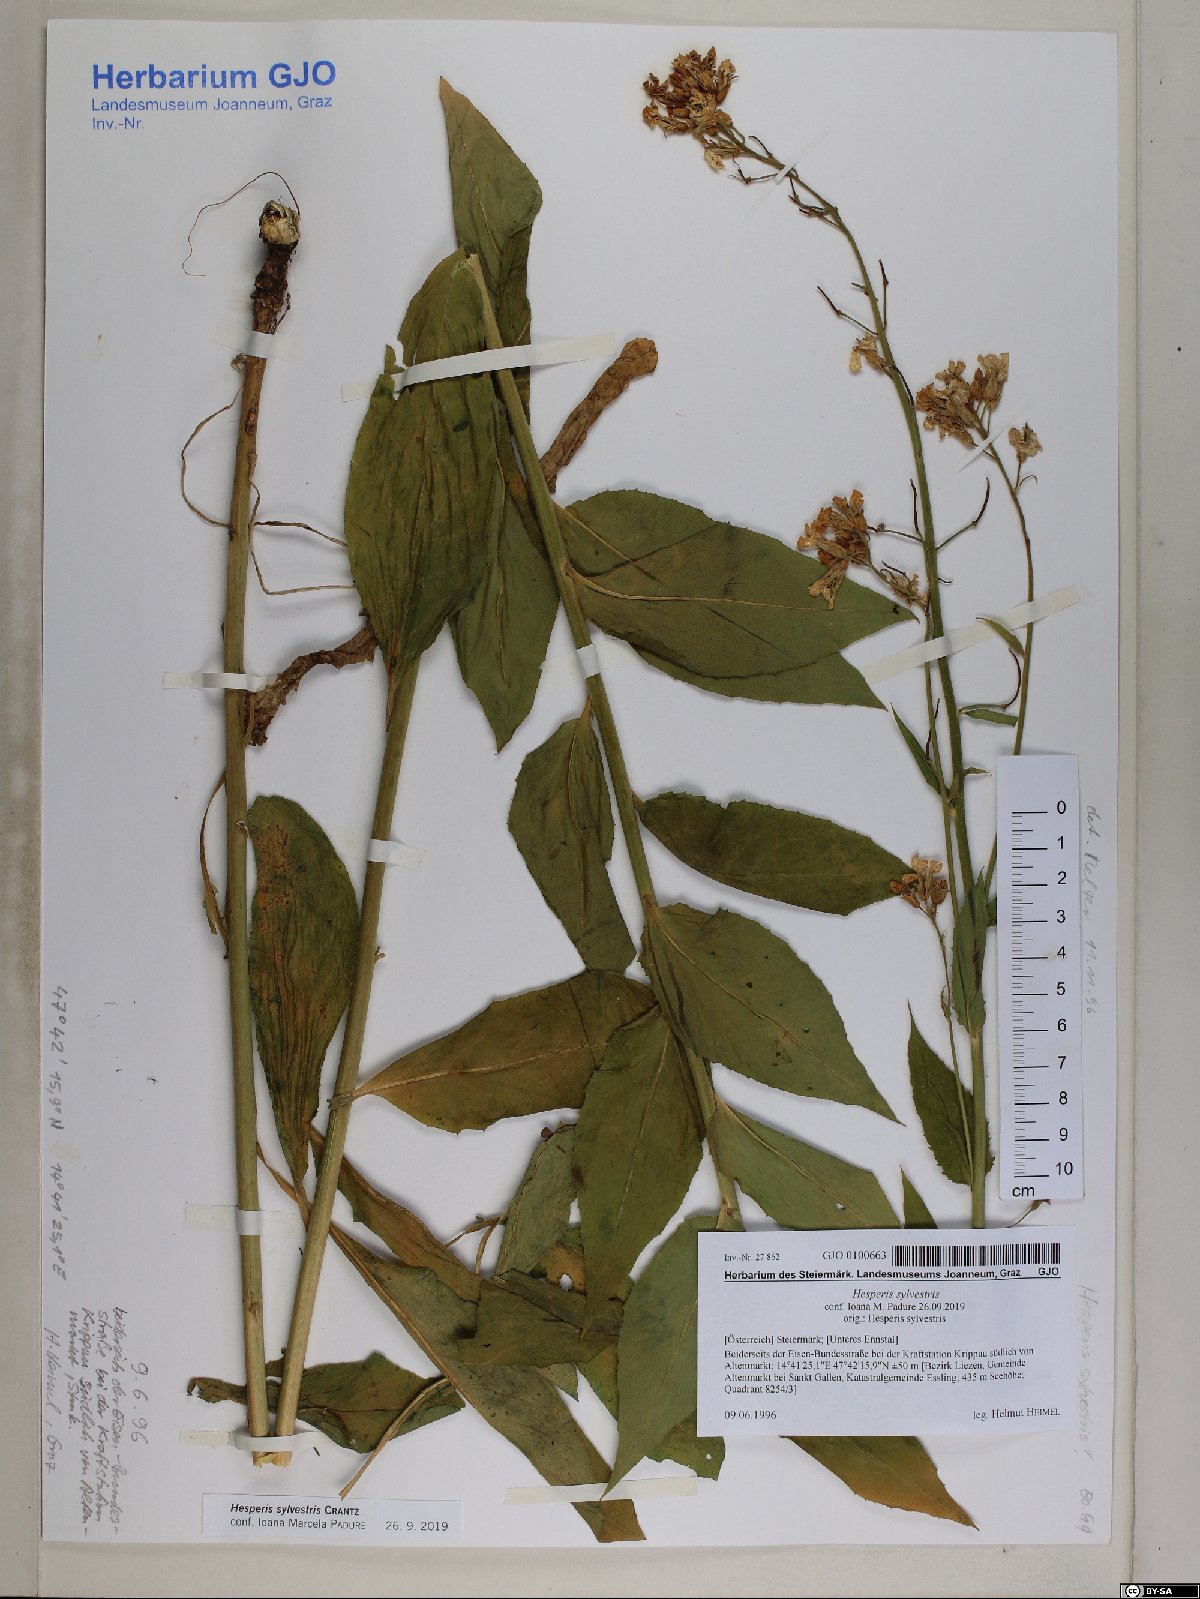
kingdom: Plantae
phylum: Tracheophyta
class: Magnoliopsida
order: Brassicales
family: Brassicaceae
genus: Hesperis
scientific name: Hesperis sylvestris
